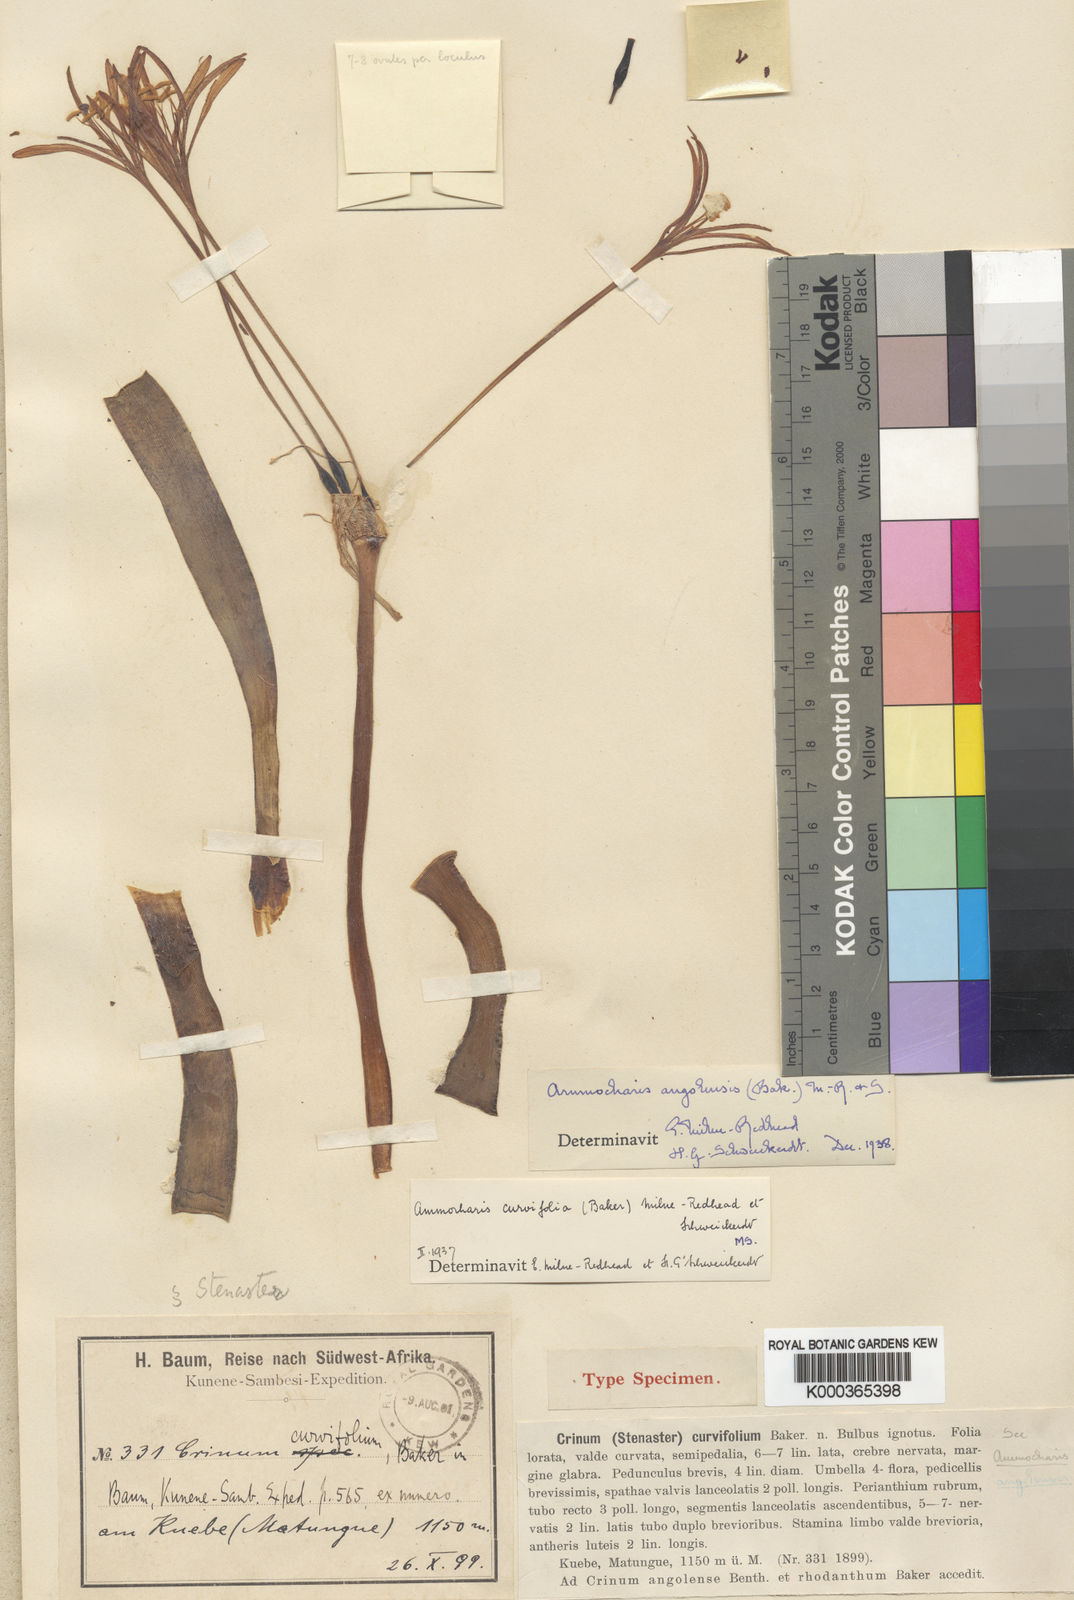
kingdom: Plantae
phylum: Tracheophyta
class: Liliopsida
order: Asparagales
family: Amaryllidaceae
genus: Ammocharis
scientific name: Ammocharis baumii
